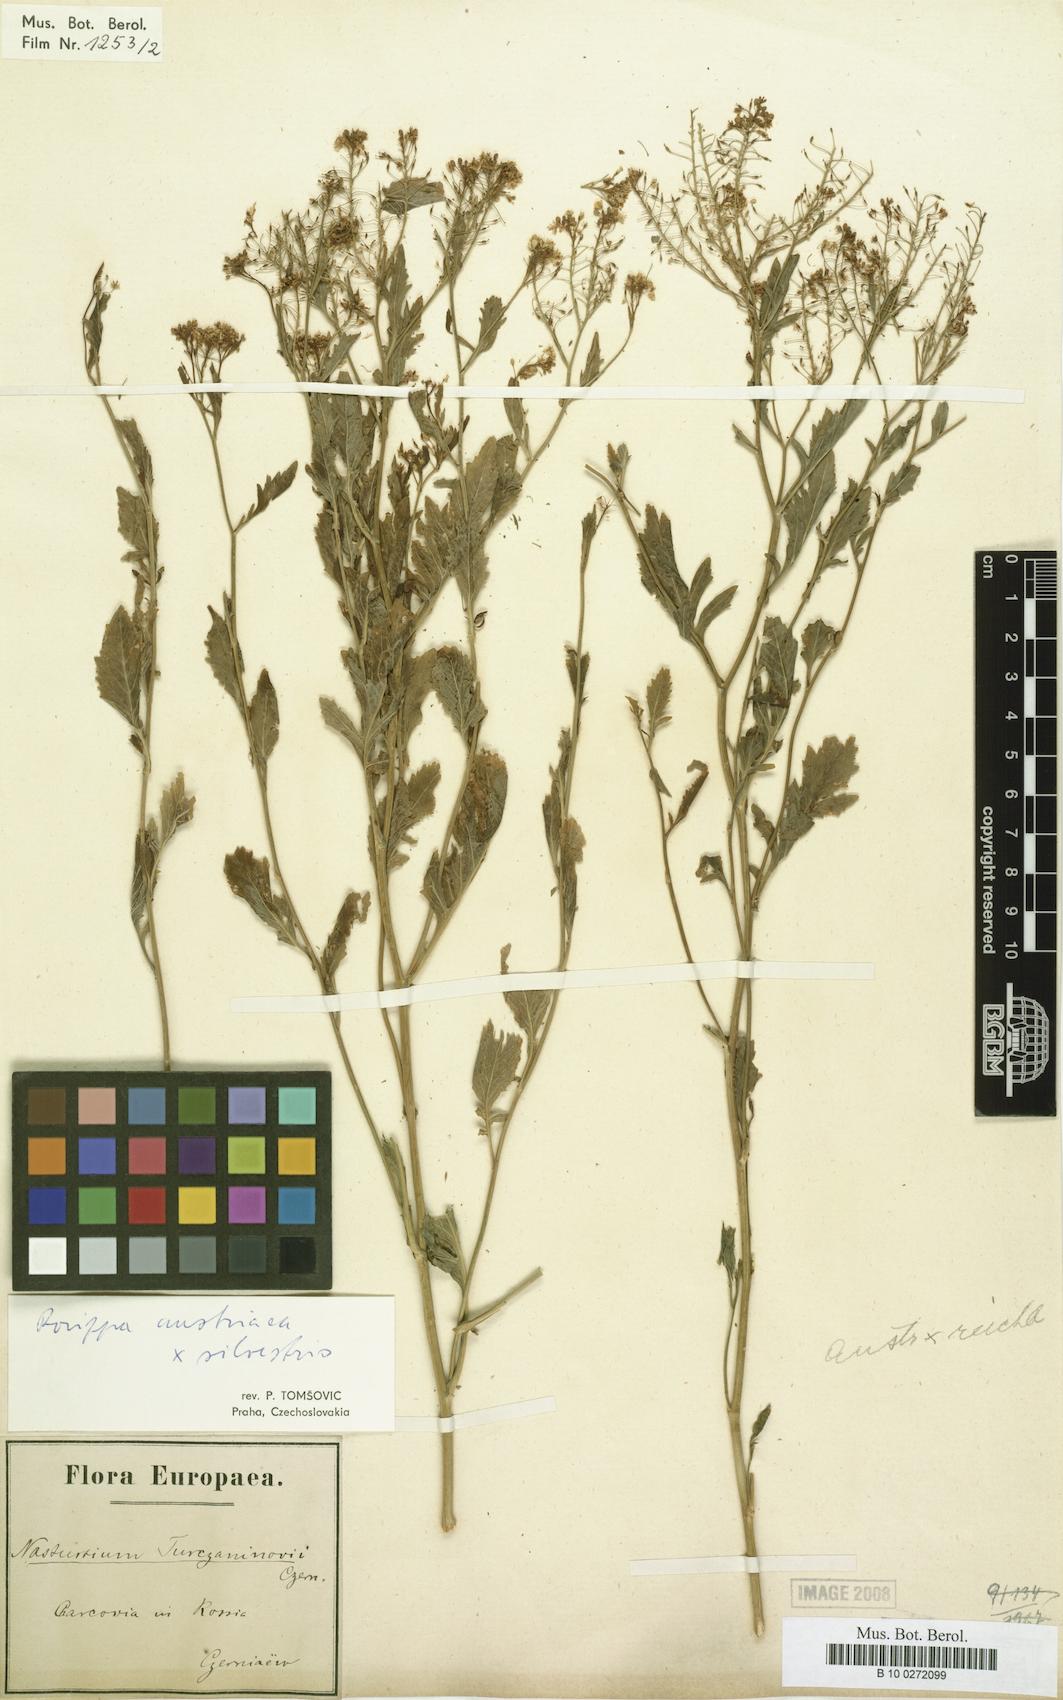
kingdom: Plantae
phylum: Tracheophyta
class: Magnoliopsida
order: Brassicales
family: Brassicaceae
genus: Rorippa
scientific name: Rorippa anceps
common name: Rorippa
